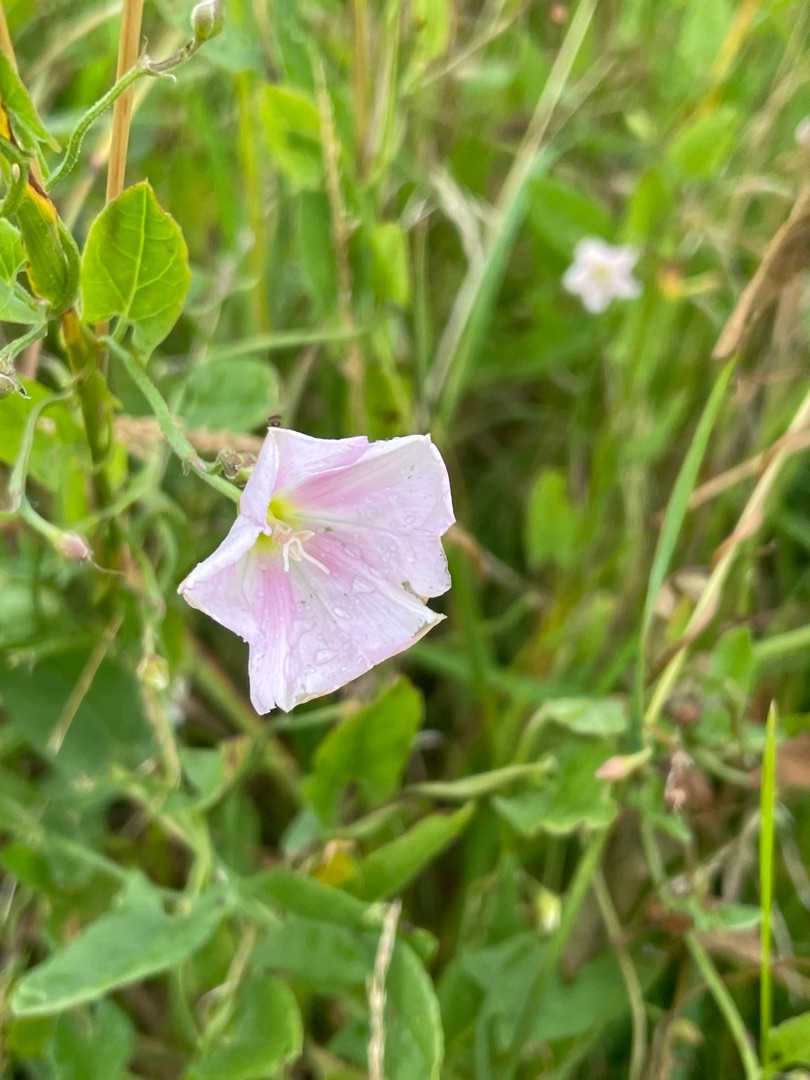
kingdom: Plantae
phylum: Tracheophyta
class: Magnoliopsida
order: Solanales
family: Convolvulaceae
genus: Convolvulus
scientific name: Convolvulus arvensis
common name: Ager-snerle
